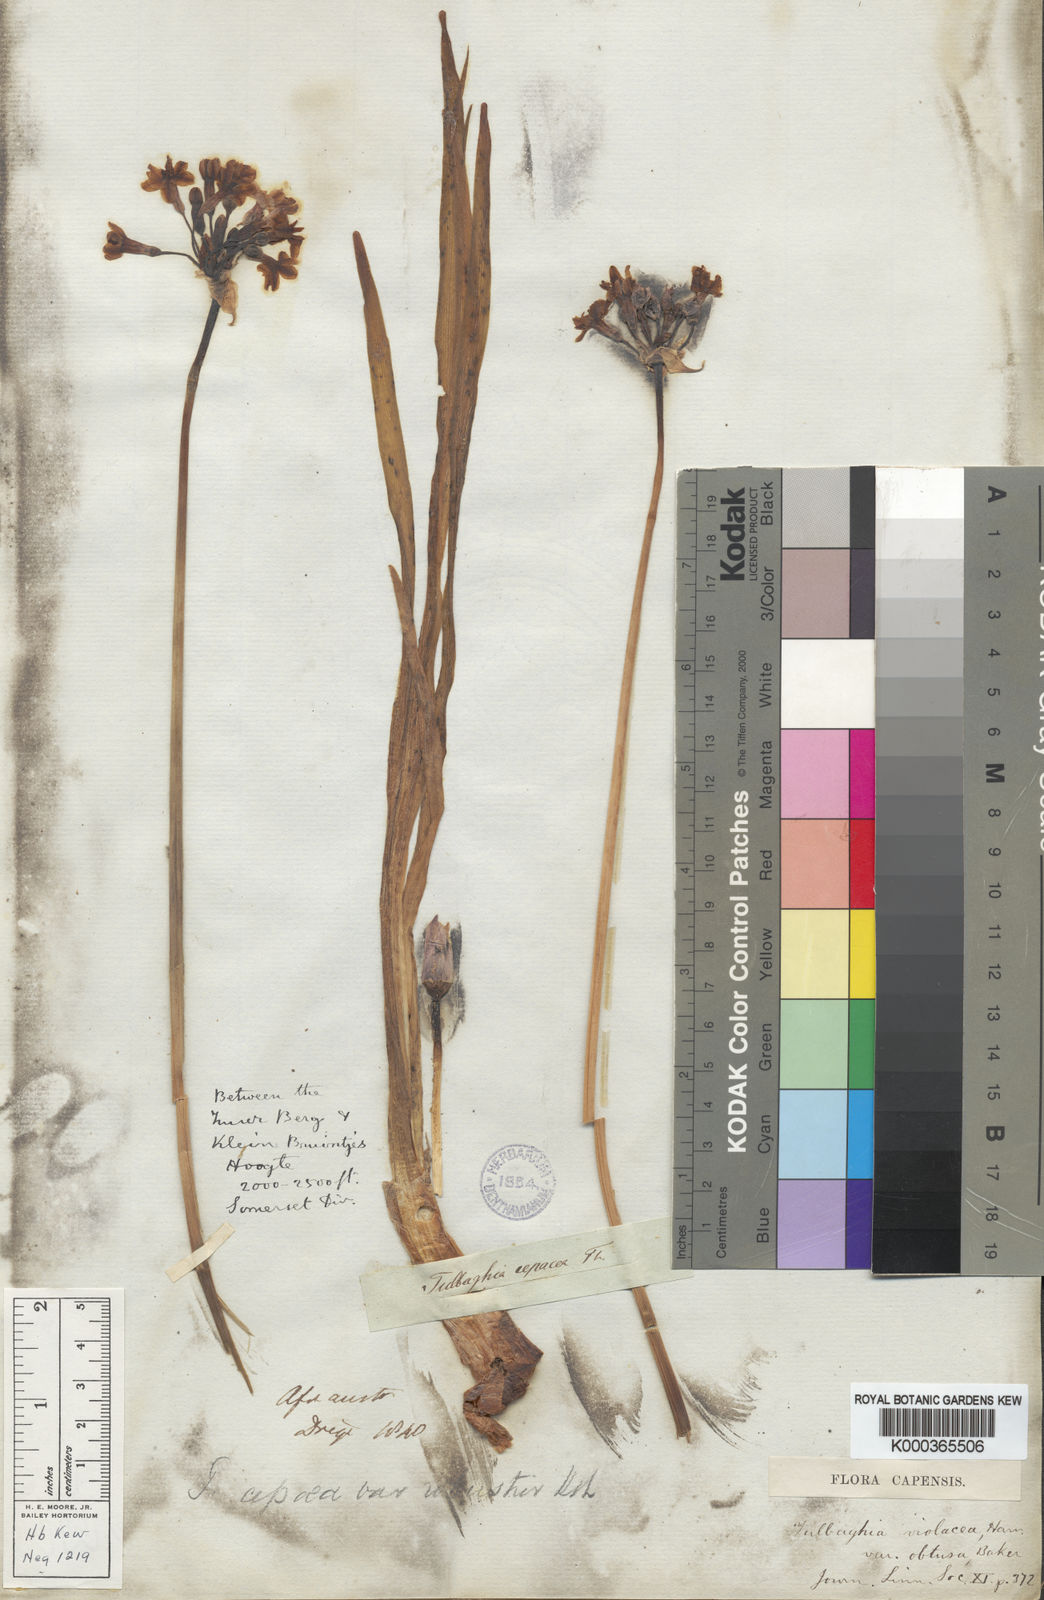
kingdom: Plantae
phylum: Tracheophyta
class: Liliopsida
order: Asparagales
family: Amaryllidaceae
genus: Tulbaghia
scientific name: Tulbaghia violacea
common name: Society garlic
